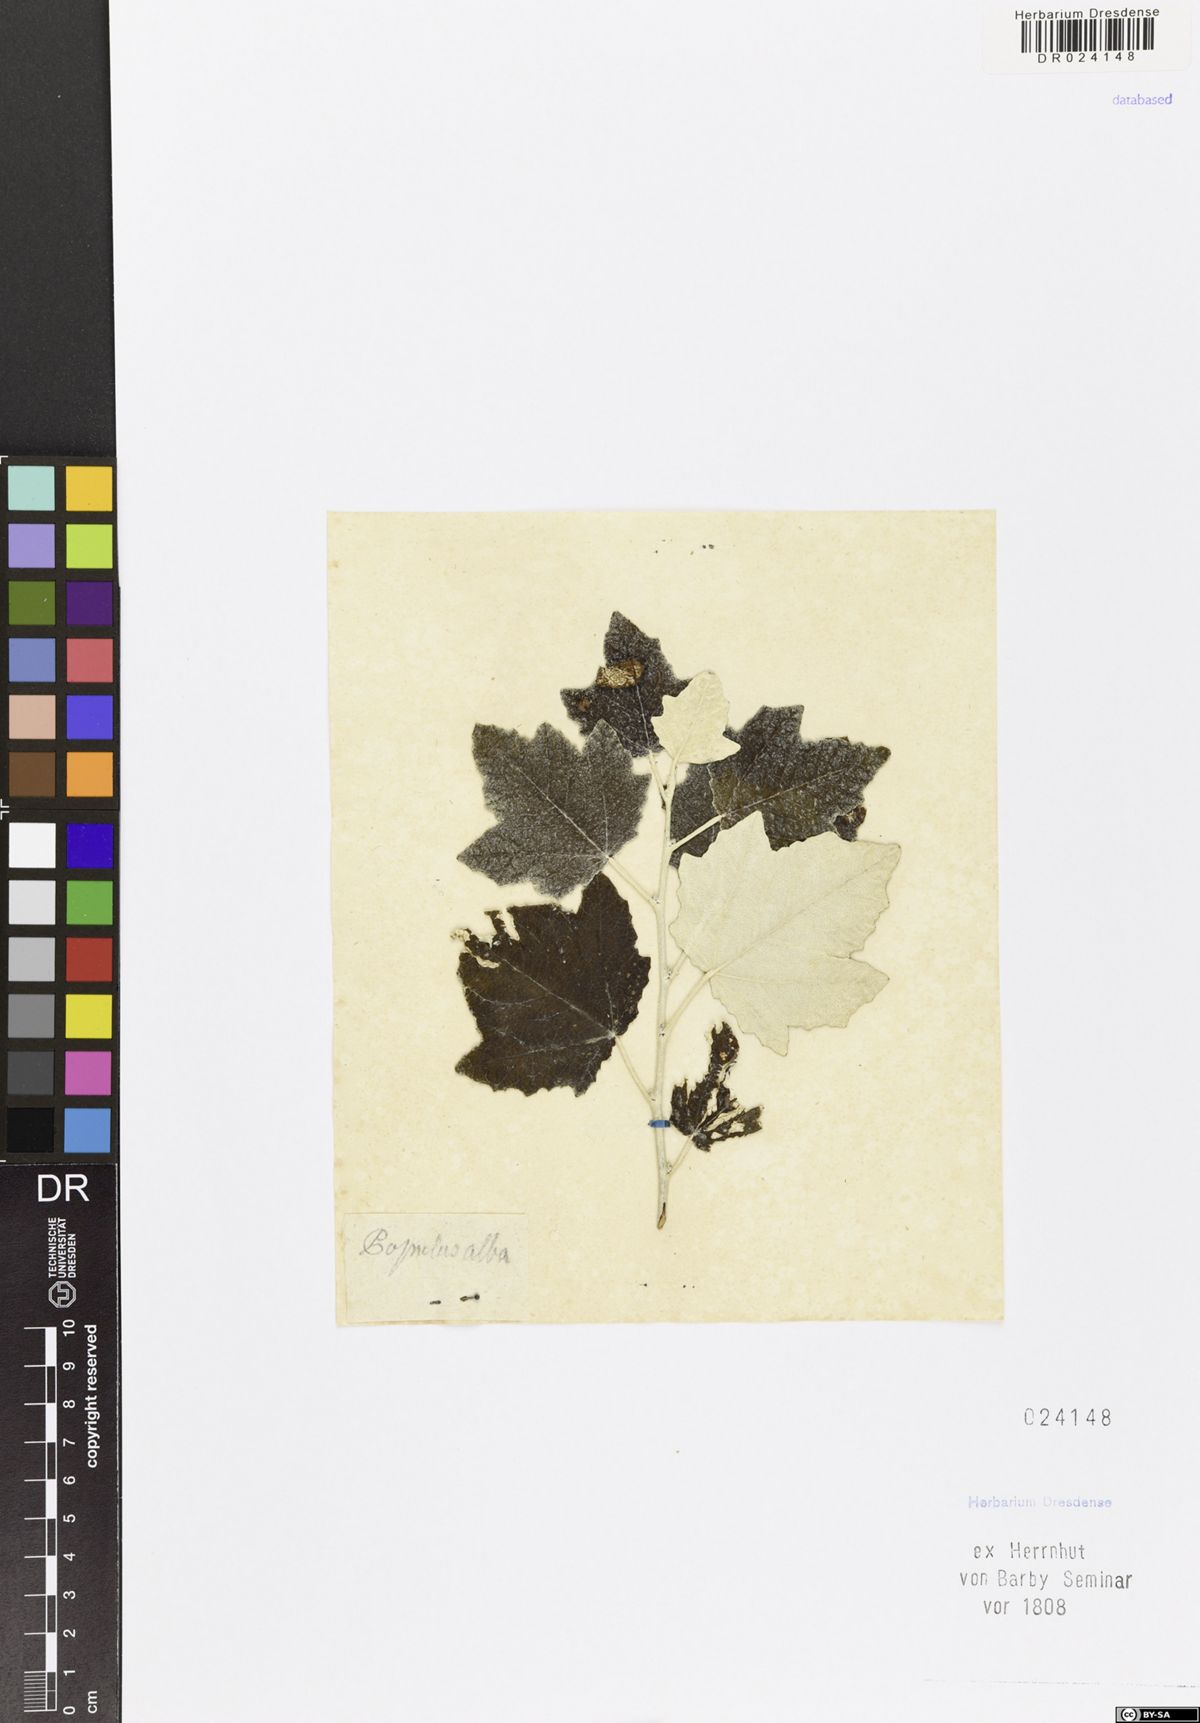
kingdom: Plantae
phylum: Tracheophyta
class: Magnoliopsida
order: Malpighiales
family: Salicaceae
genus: Populus
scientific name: Populus alba
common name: White poplar
